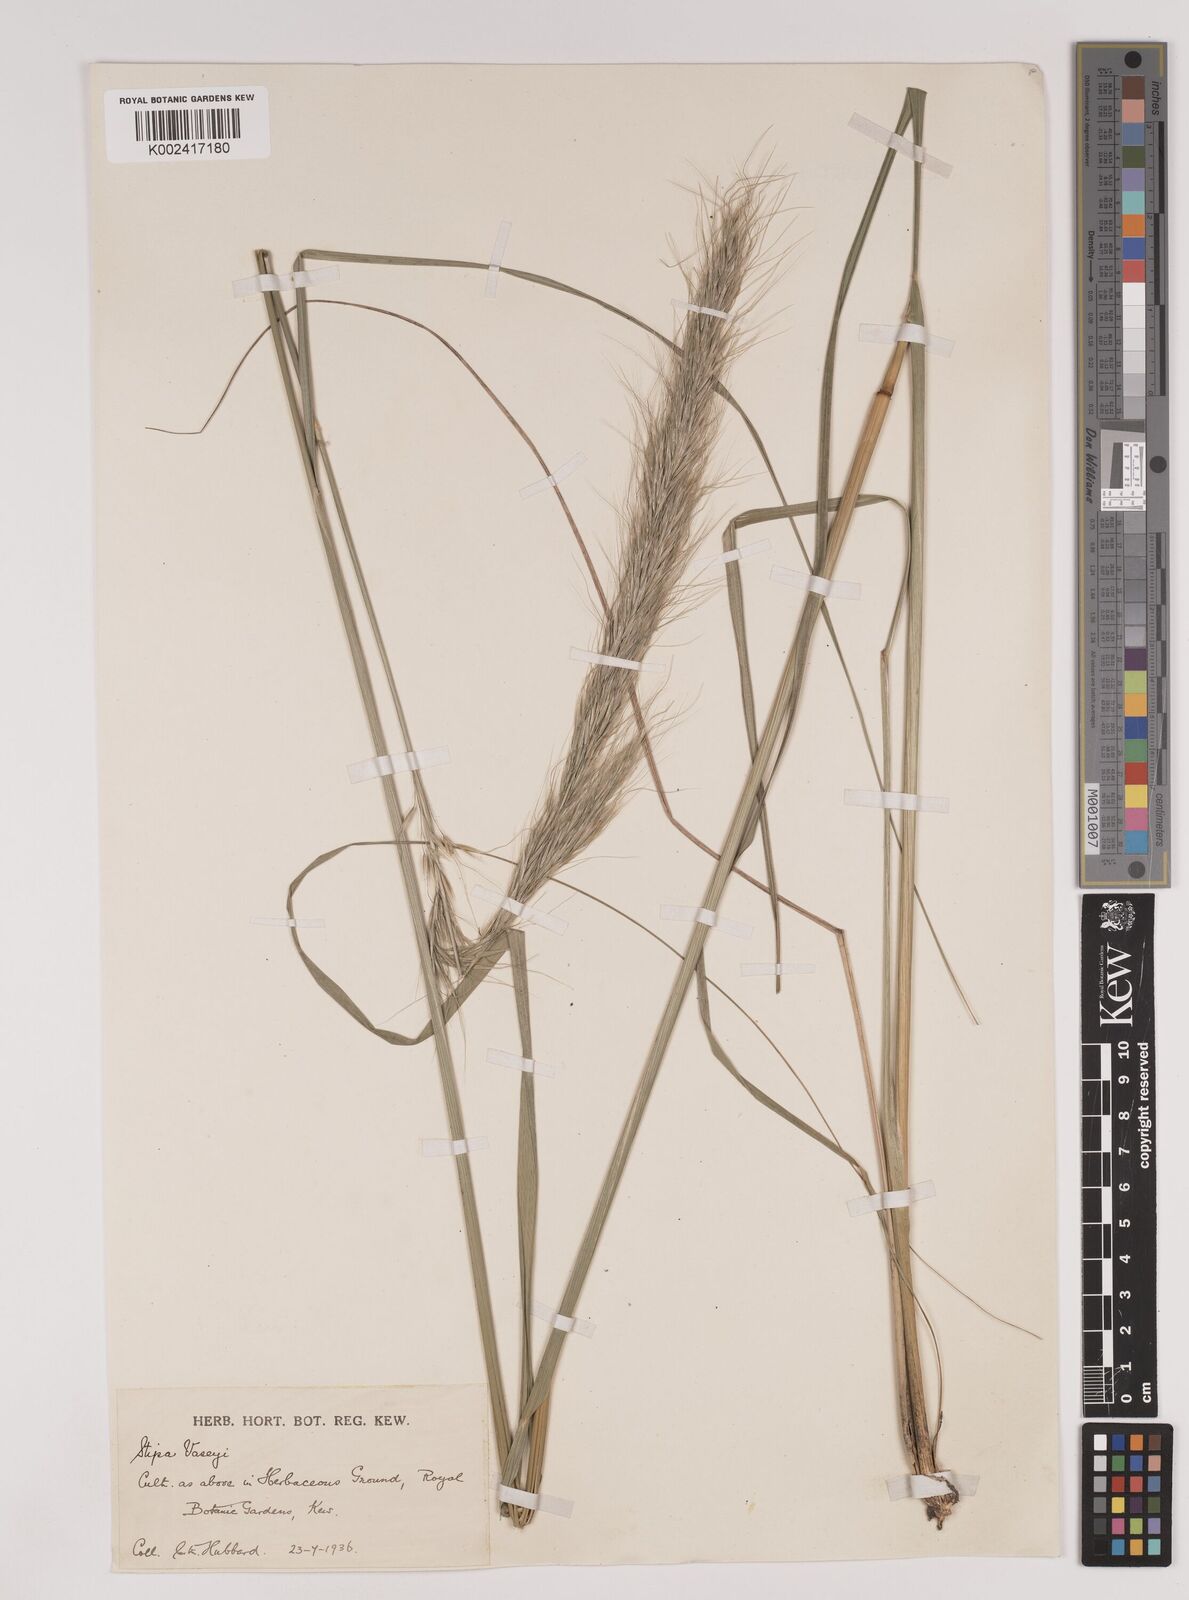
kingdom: Plantae
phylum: Tracheophyta
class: Liliopsida
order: Poales
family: Poaceae
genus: Eriocoma
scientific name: Eriocoma robusta
